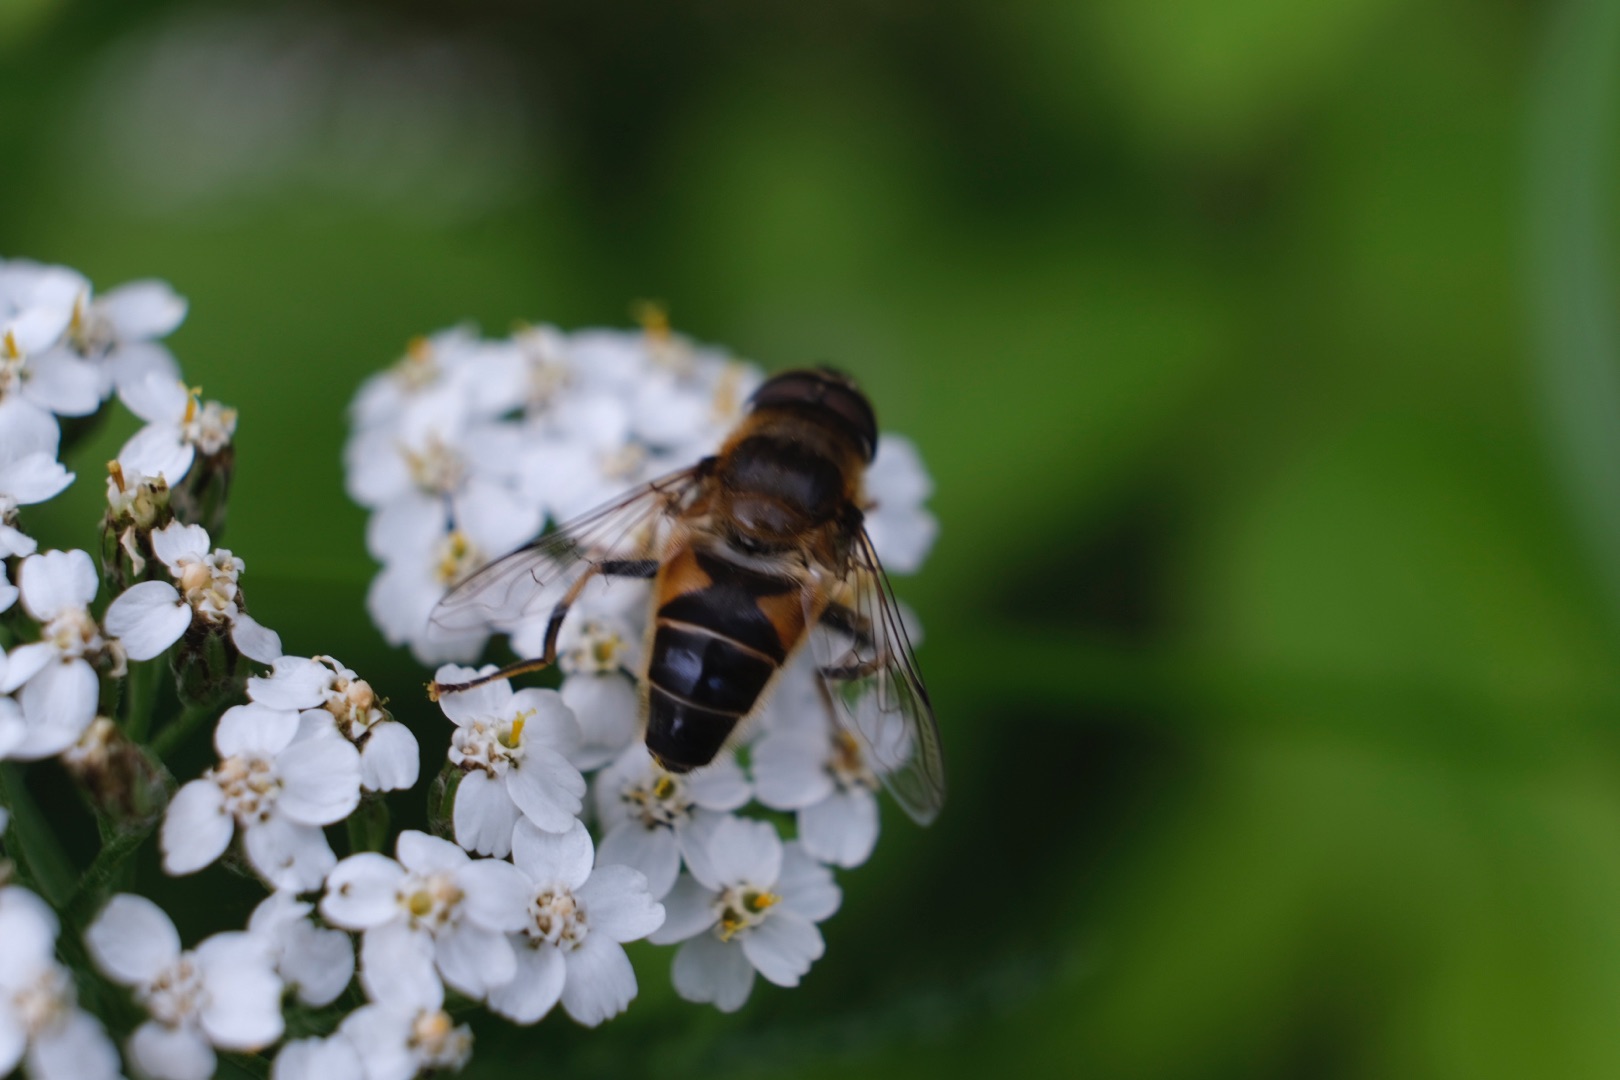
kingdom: Animalia
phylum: Arthropoda
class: Insecta
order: Diptera
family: Syrphidae
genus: Eristalis
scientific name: Eristalis pertinax
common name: Gulfodet dyndflue
